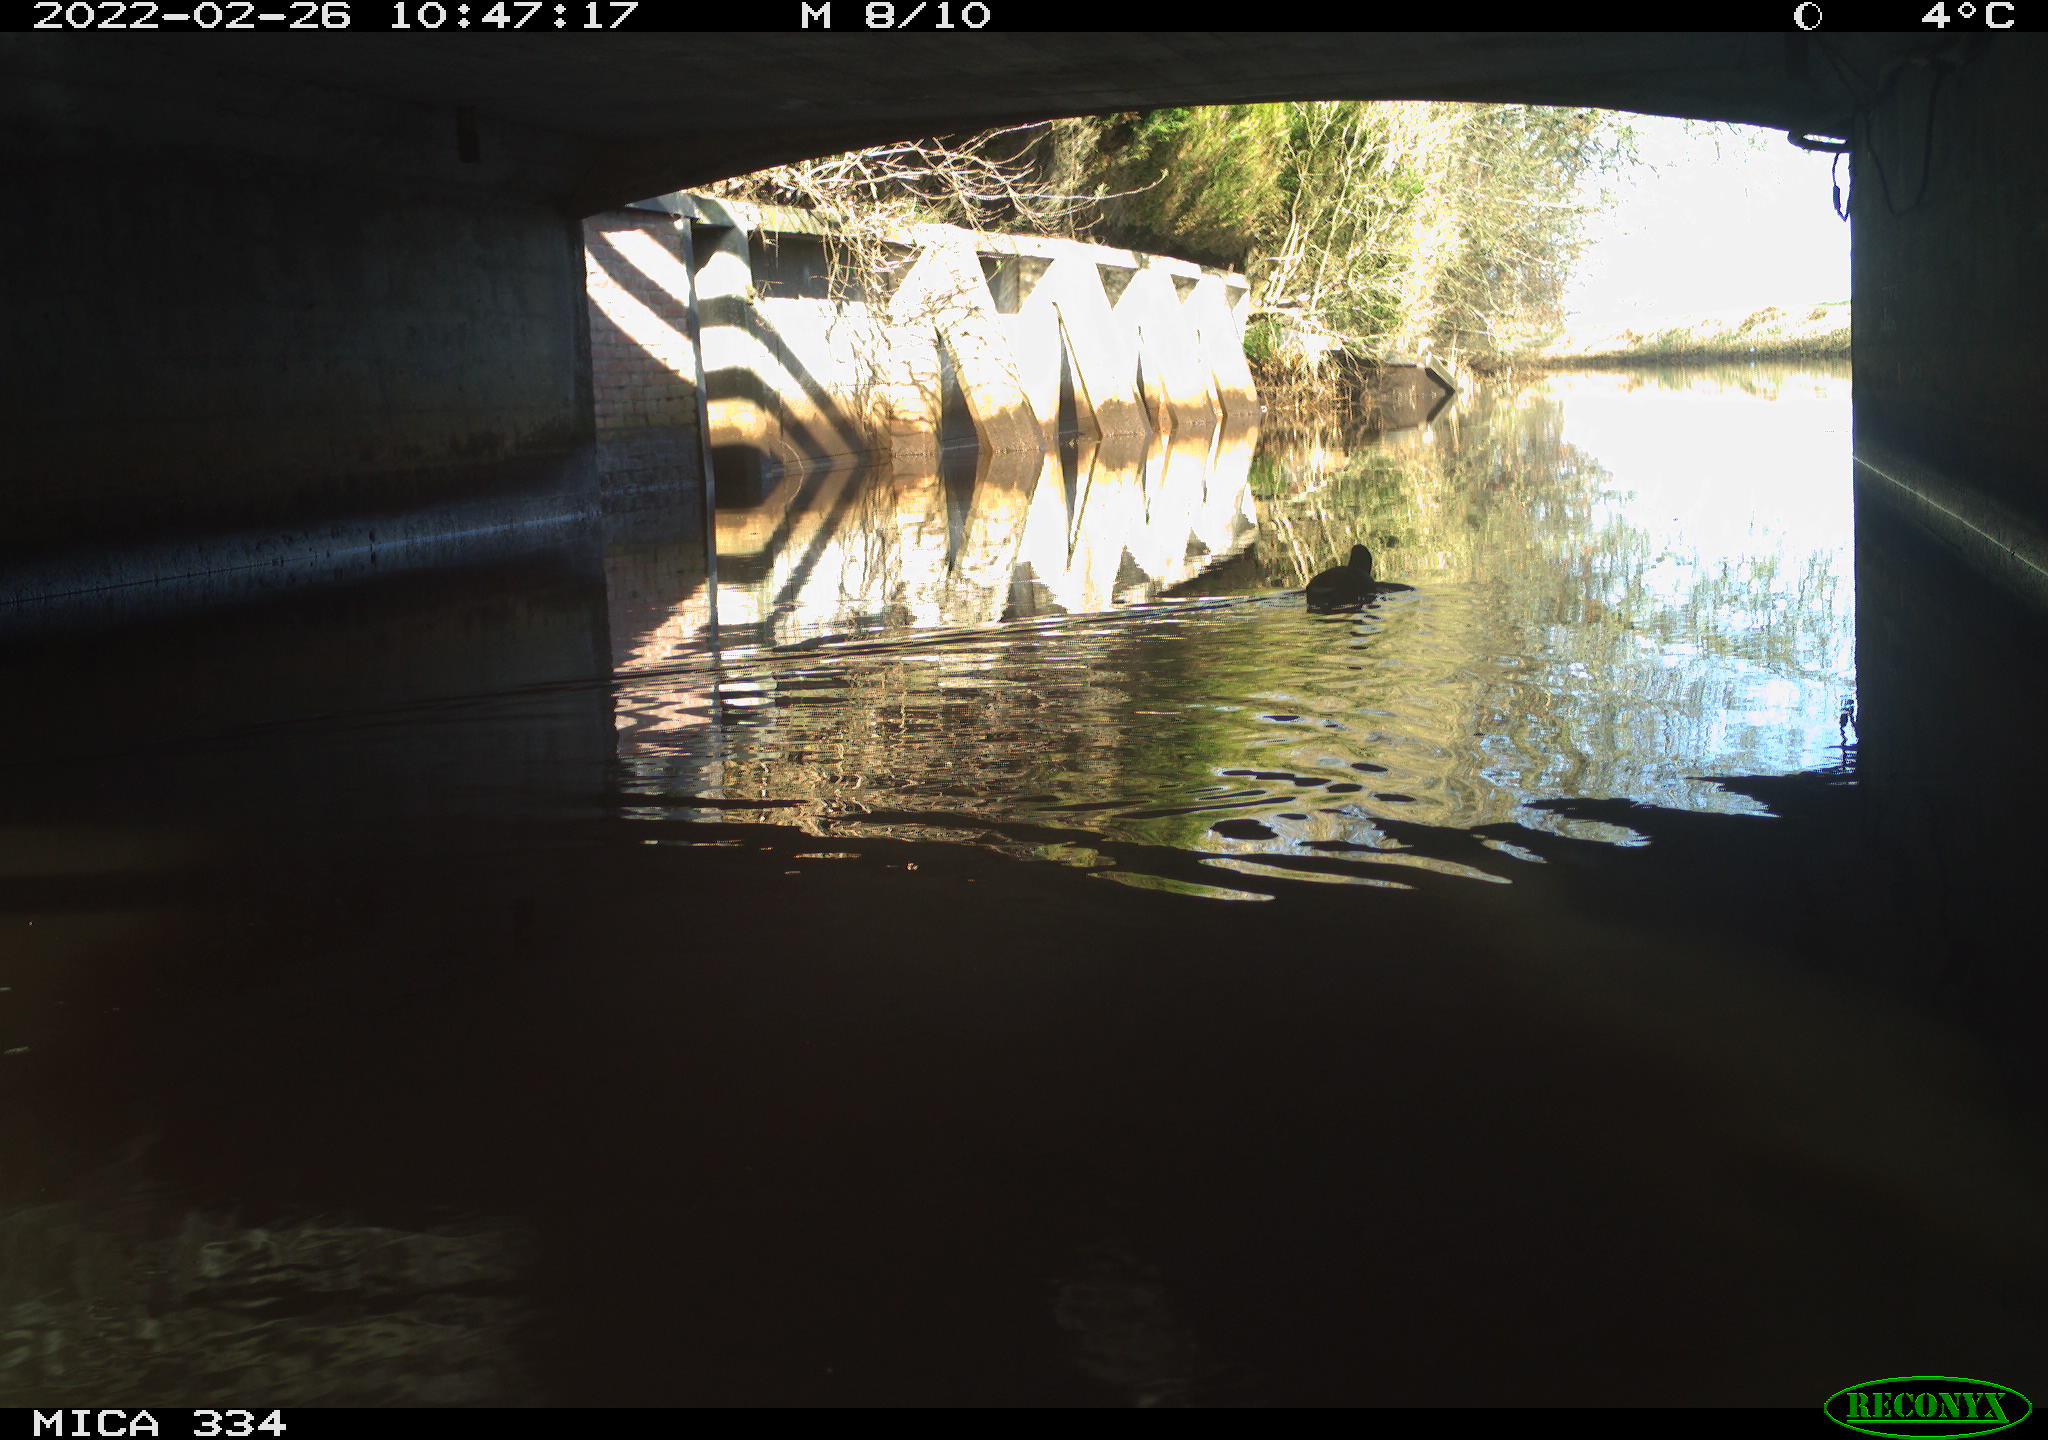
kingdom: Animalia
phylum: Chordata
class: Aves
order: Gruiformes
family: Rallidae
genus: Fulica
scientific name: Fulica atra
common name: Eurasian coot
